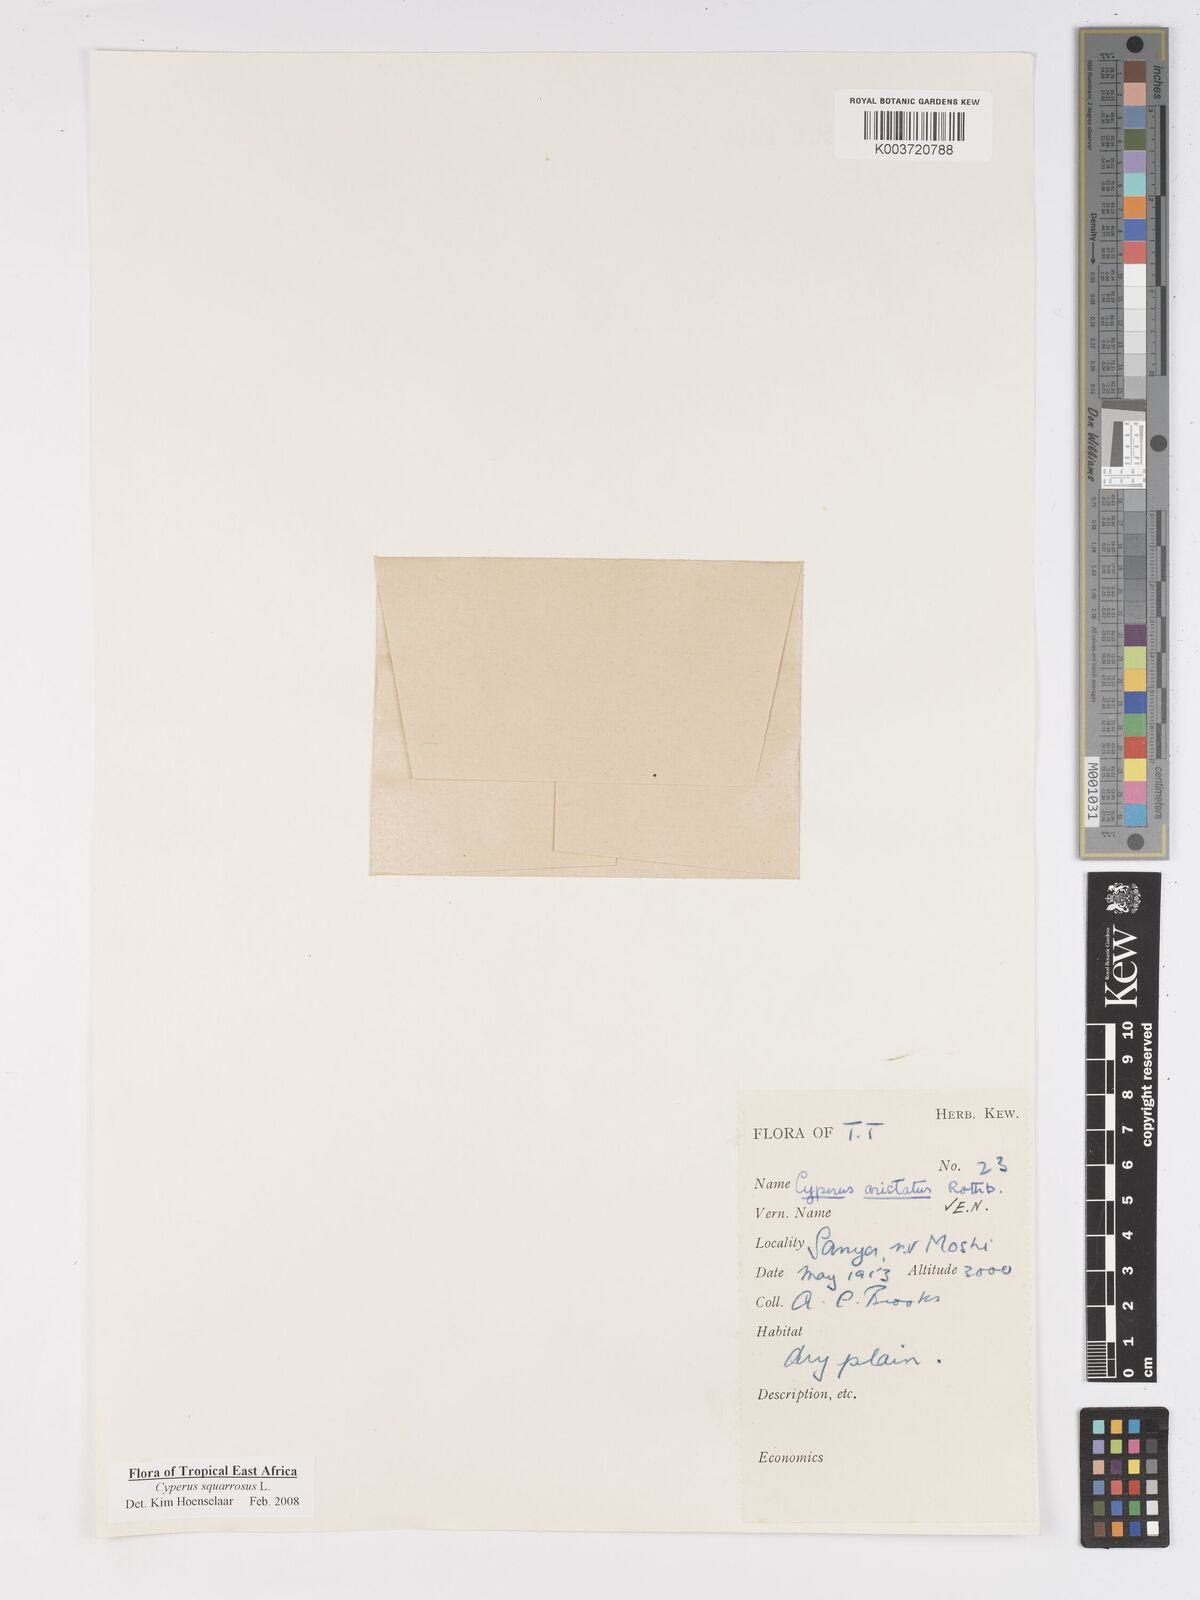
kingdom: Plantae
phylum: Tracheophyta
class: Liliopsida
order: Poales
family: Cyperaceae
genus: Cyperus
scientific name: Cyperus squarrosus
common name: Awned cyperus
